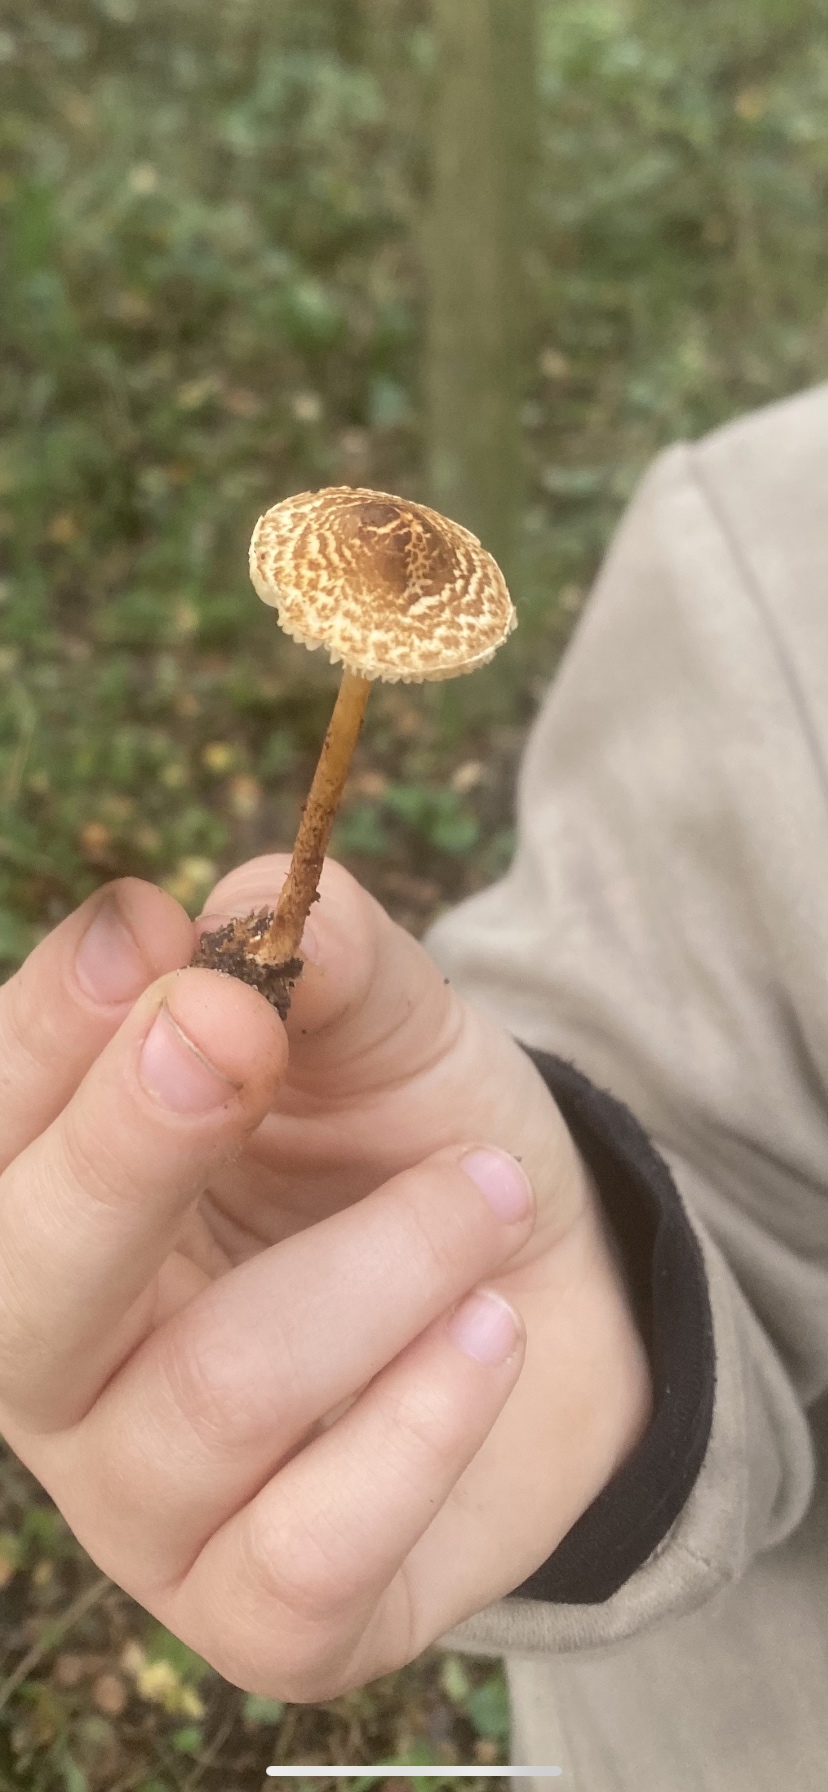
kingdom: Fungi
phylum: Basidiomycota
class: Agaricomycetes
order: Agaricales
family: Agaricaceae
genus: Lepiota
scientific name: Lepiota castanea
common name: kastaniebrun parasolhat
